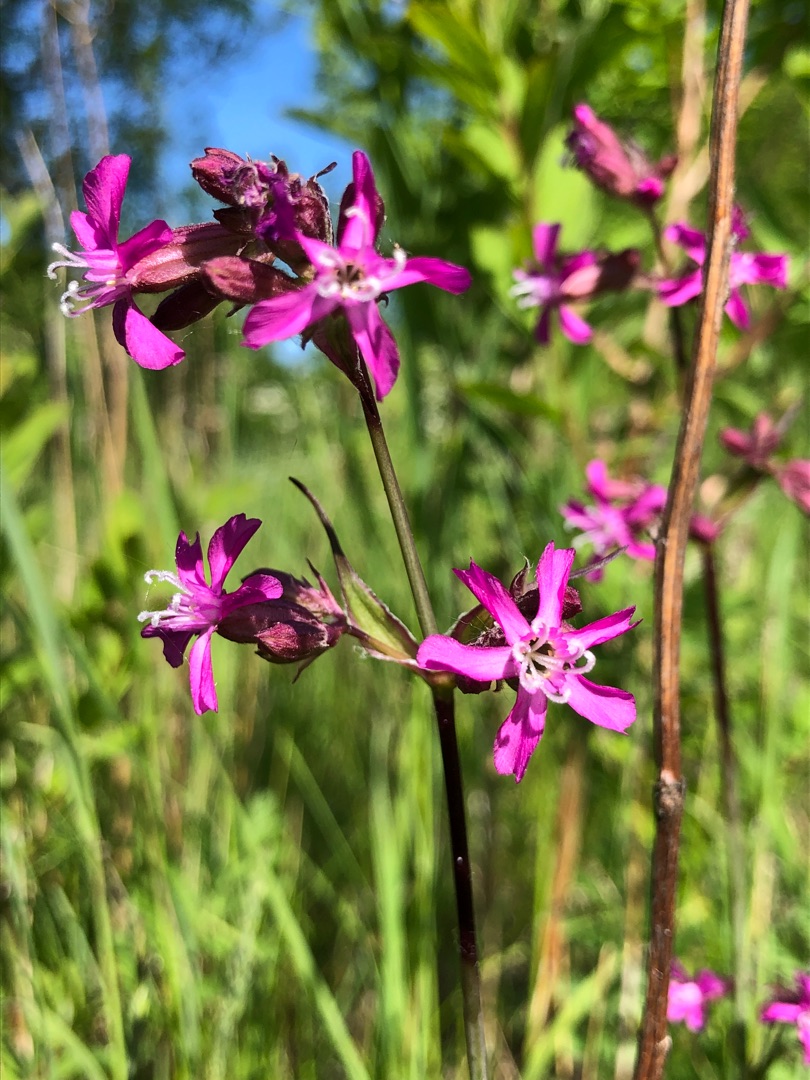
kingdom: Plantae
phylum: Tracheophyta
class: Magnoliopsida
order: Caryophyllales
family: Caryophyllaceae
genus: Viscaria
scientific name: Viscaria vulgaris
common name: Tjærenellike
